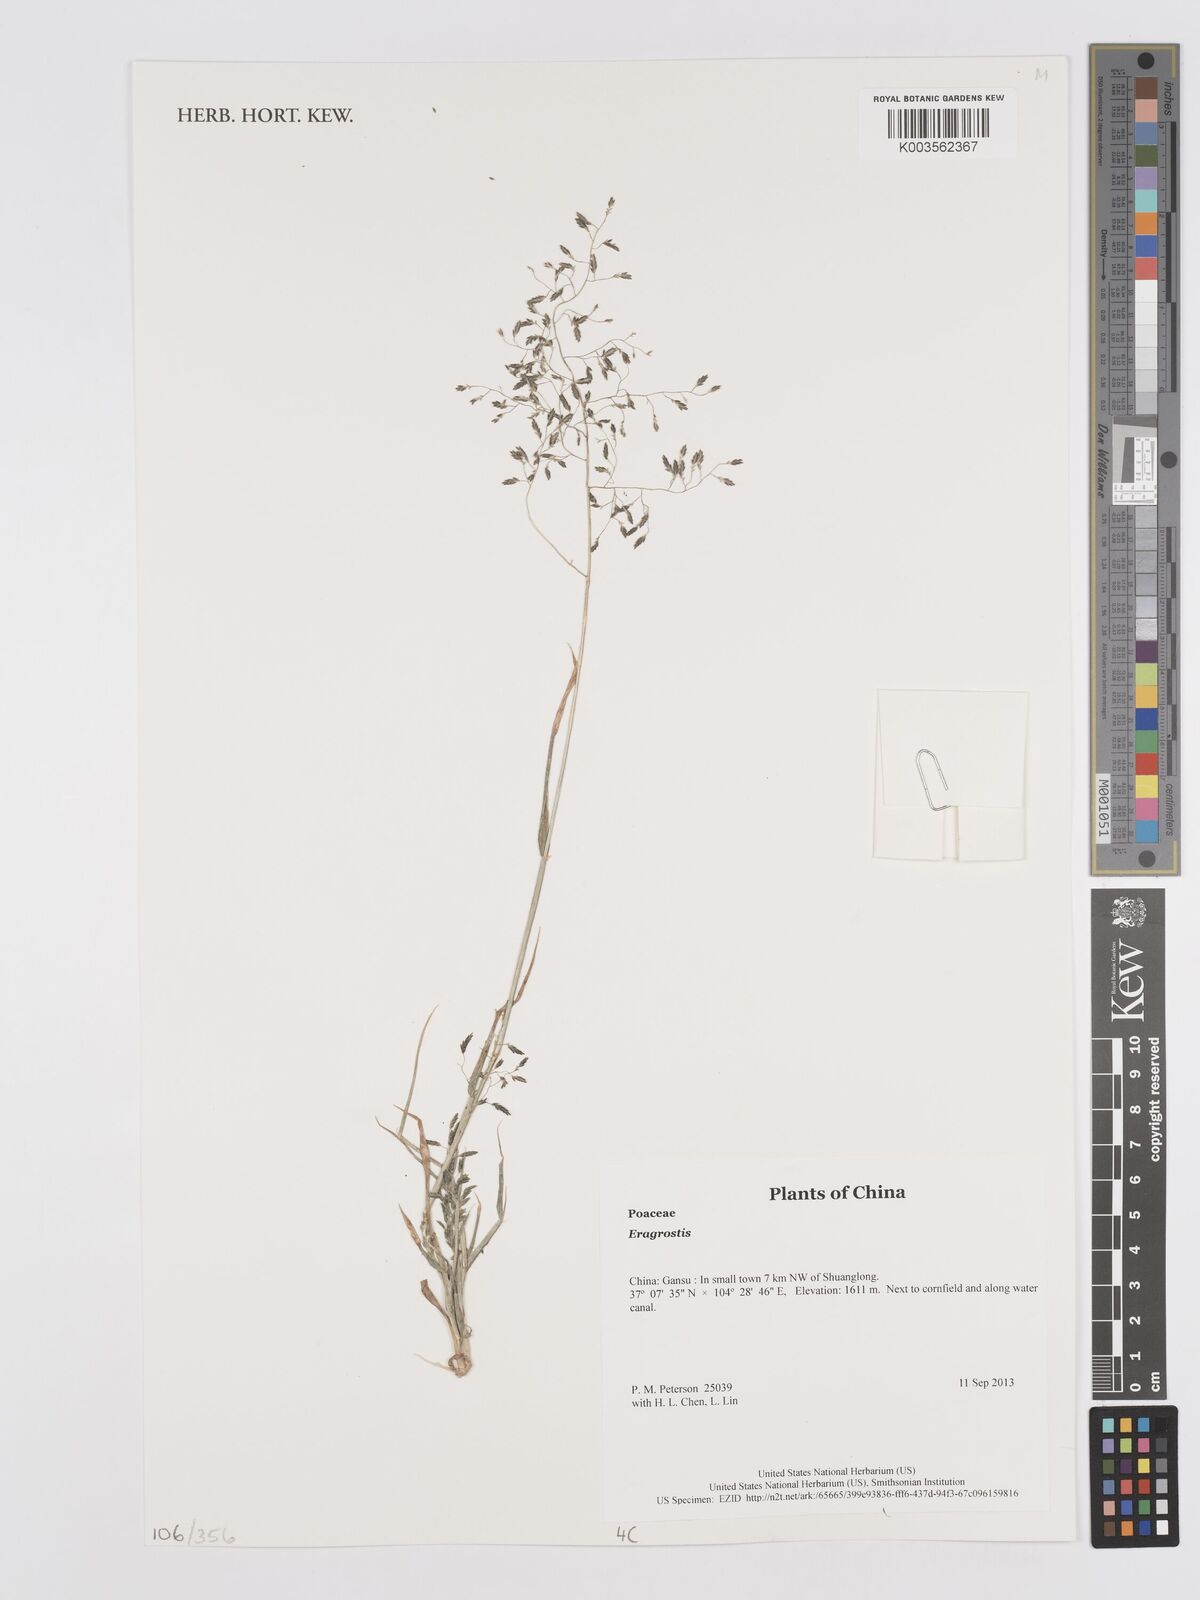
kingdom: Plantae
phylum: Tracheophyta
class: Liliopsida
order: Poales
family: Poaceae
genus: Eragrostis
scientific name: Eragrostis
